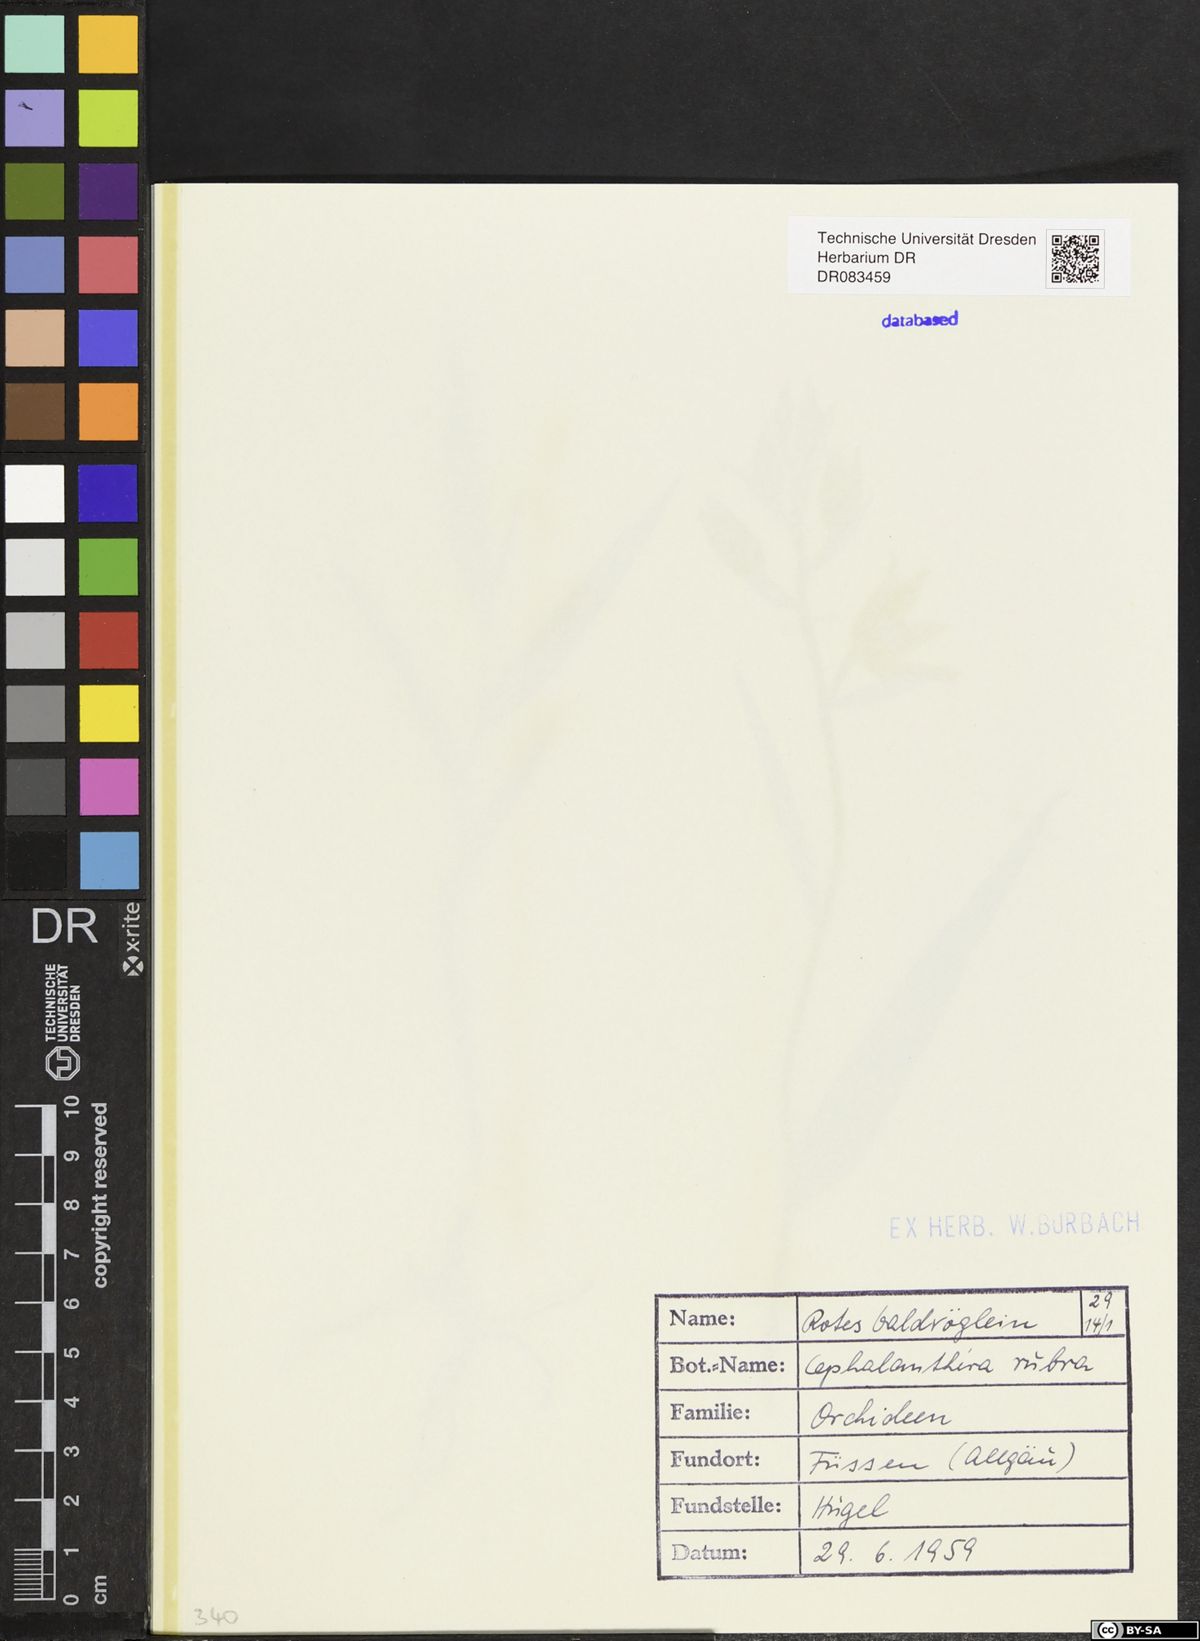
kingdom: Plantae
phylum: Tracheophyta
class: Liliopsida
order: Asparagales
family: Orchidaceae
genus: Cephalanthera
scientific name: Cephalanthera rubra
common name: Red helleborine
